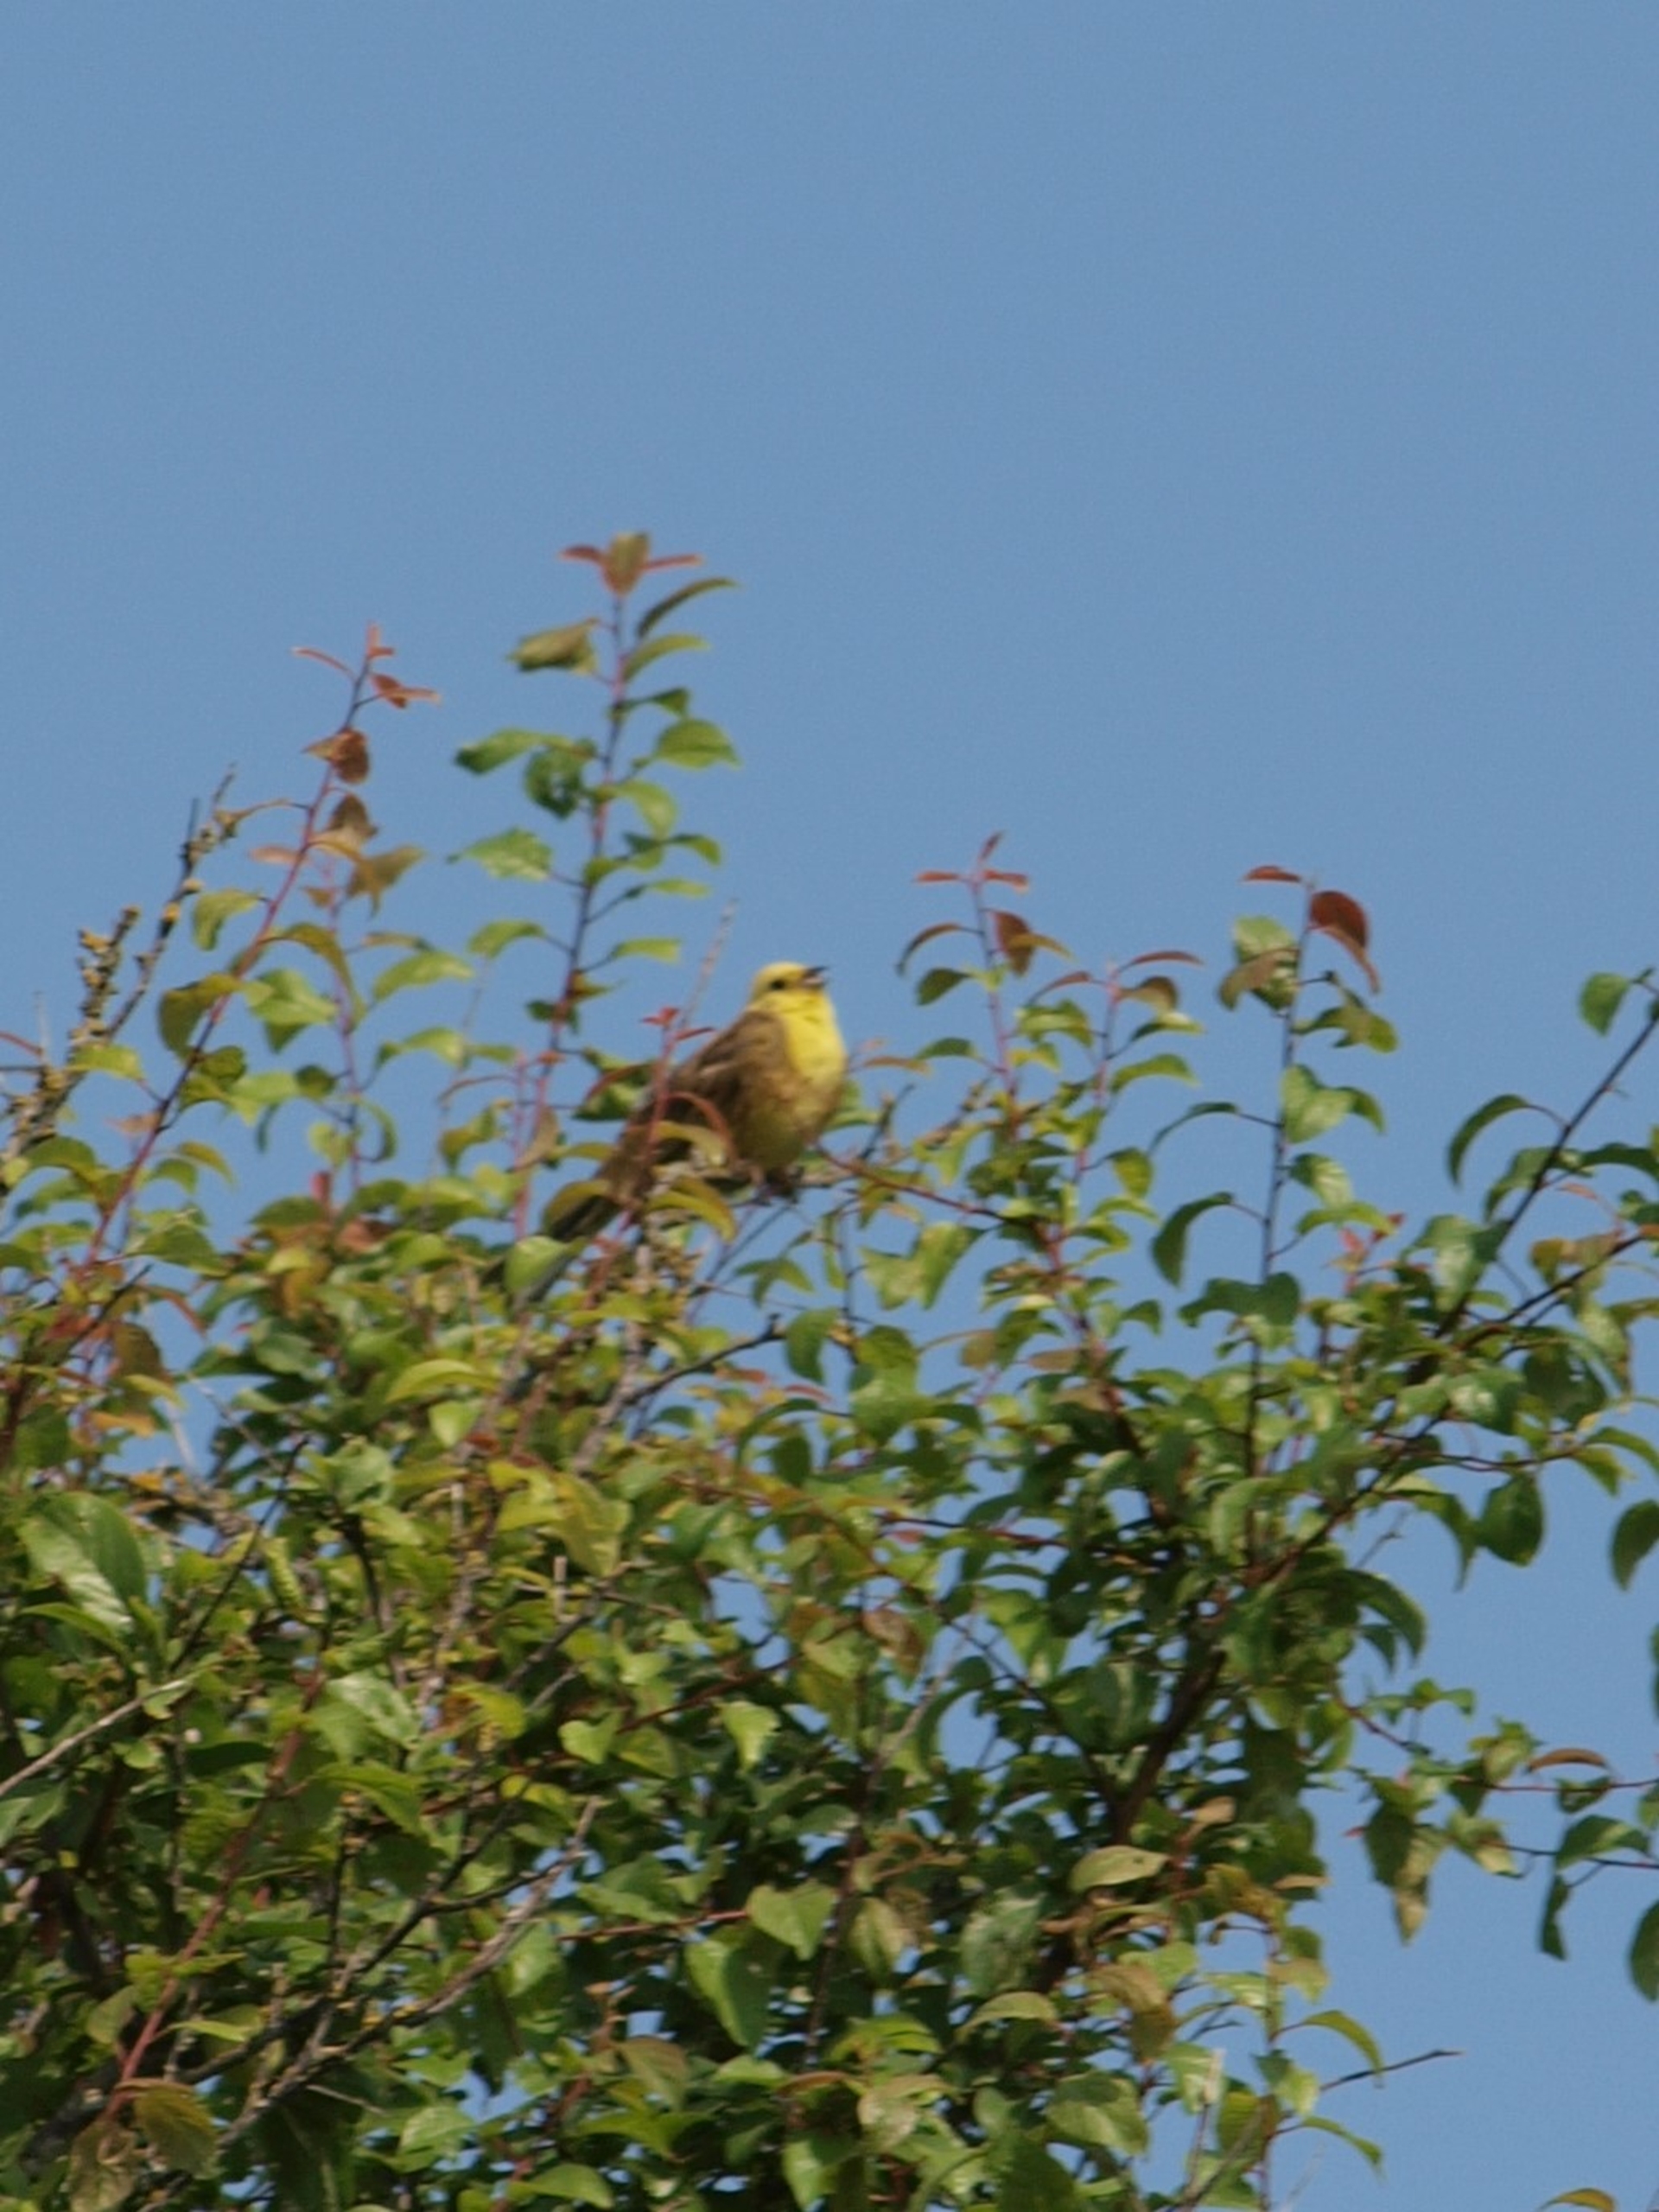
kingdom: Animalia
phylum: Chordata
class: Aves
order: Passeriformes
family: Emberizidae
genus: Emberiza
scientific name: Emberiza citrinella
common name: Gulspurv
